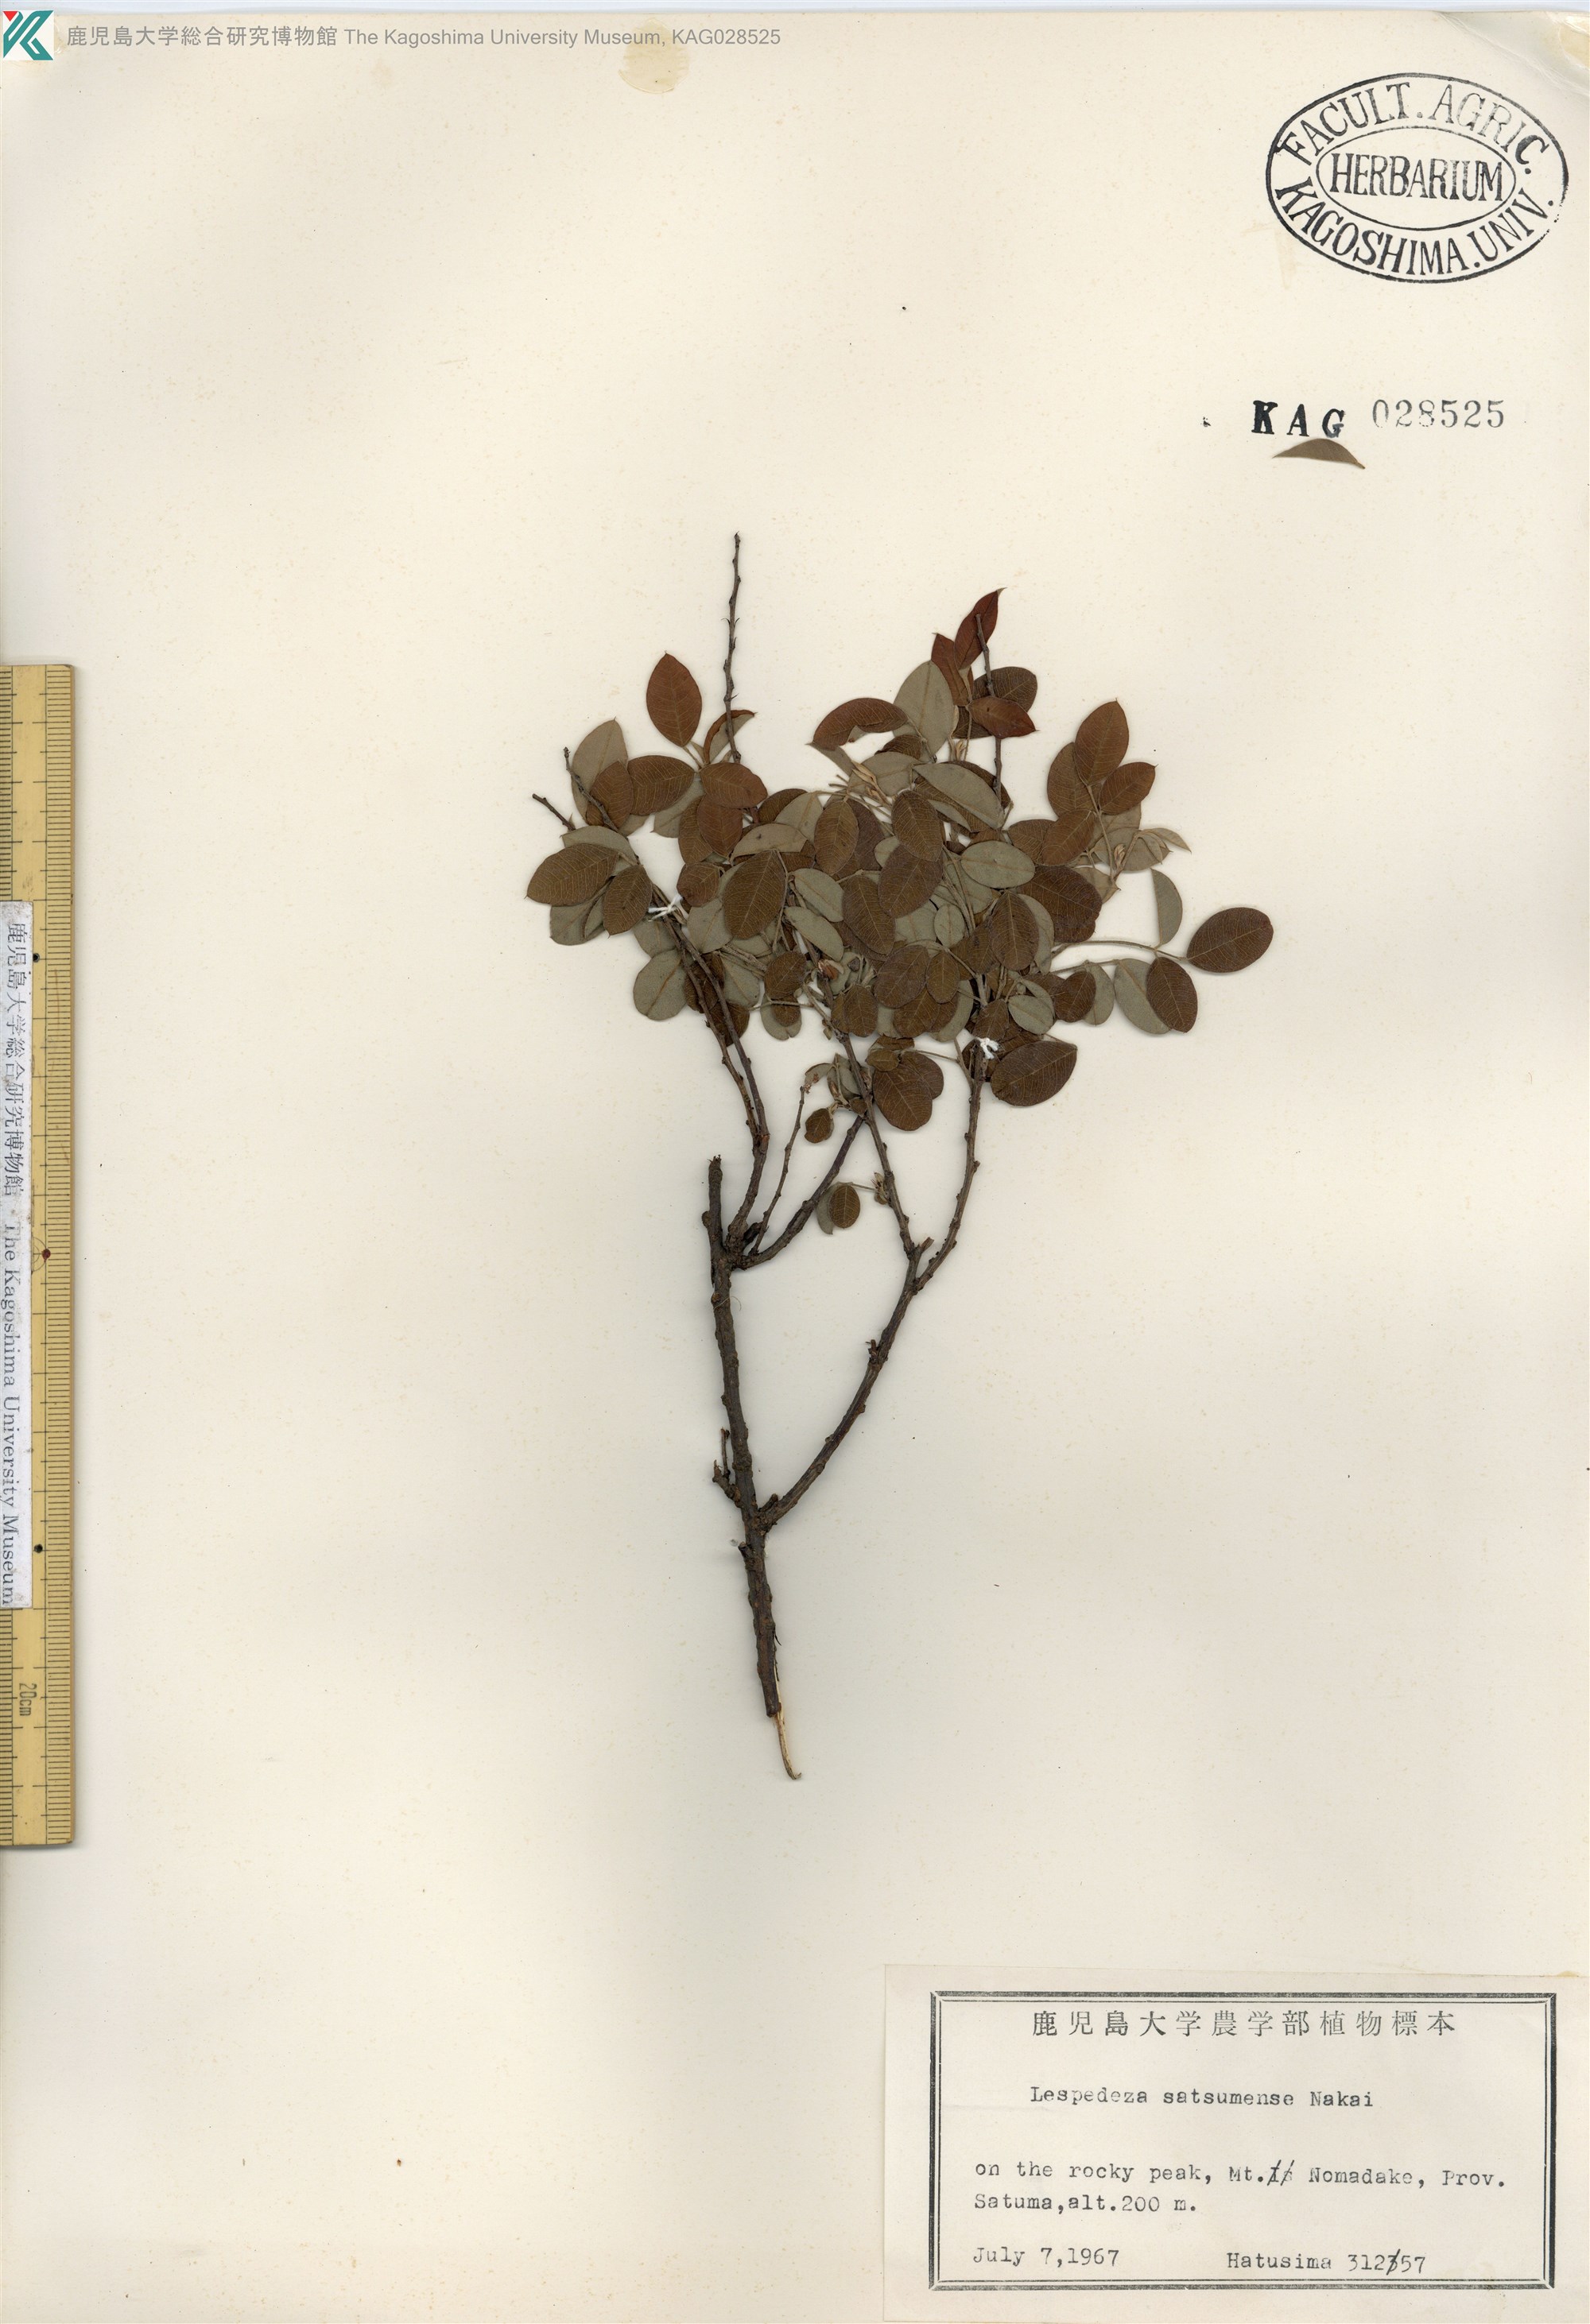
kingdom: Plantae
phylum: Tracheophyta
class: Magnoliopsida
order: Fabales
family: Fabaceae
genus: Lespedeza
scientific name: Lespedeza thunbergii
